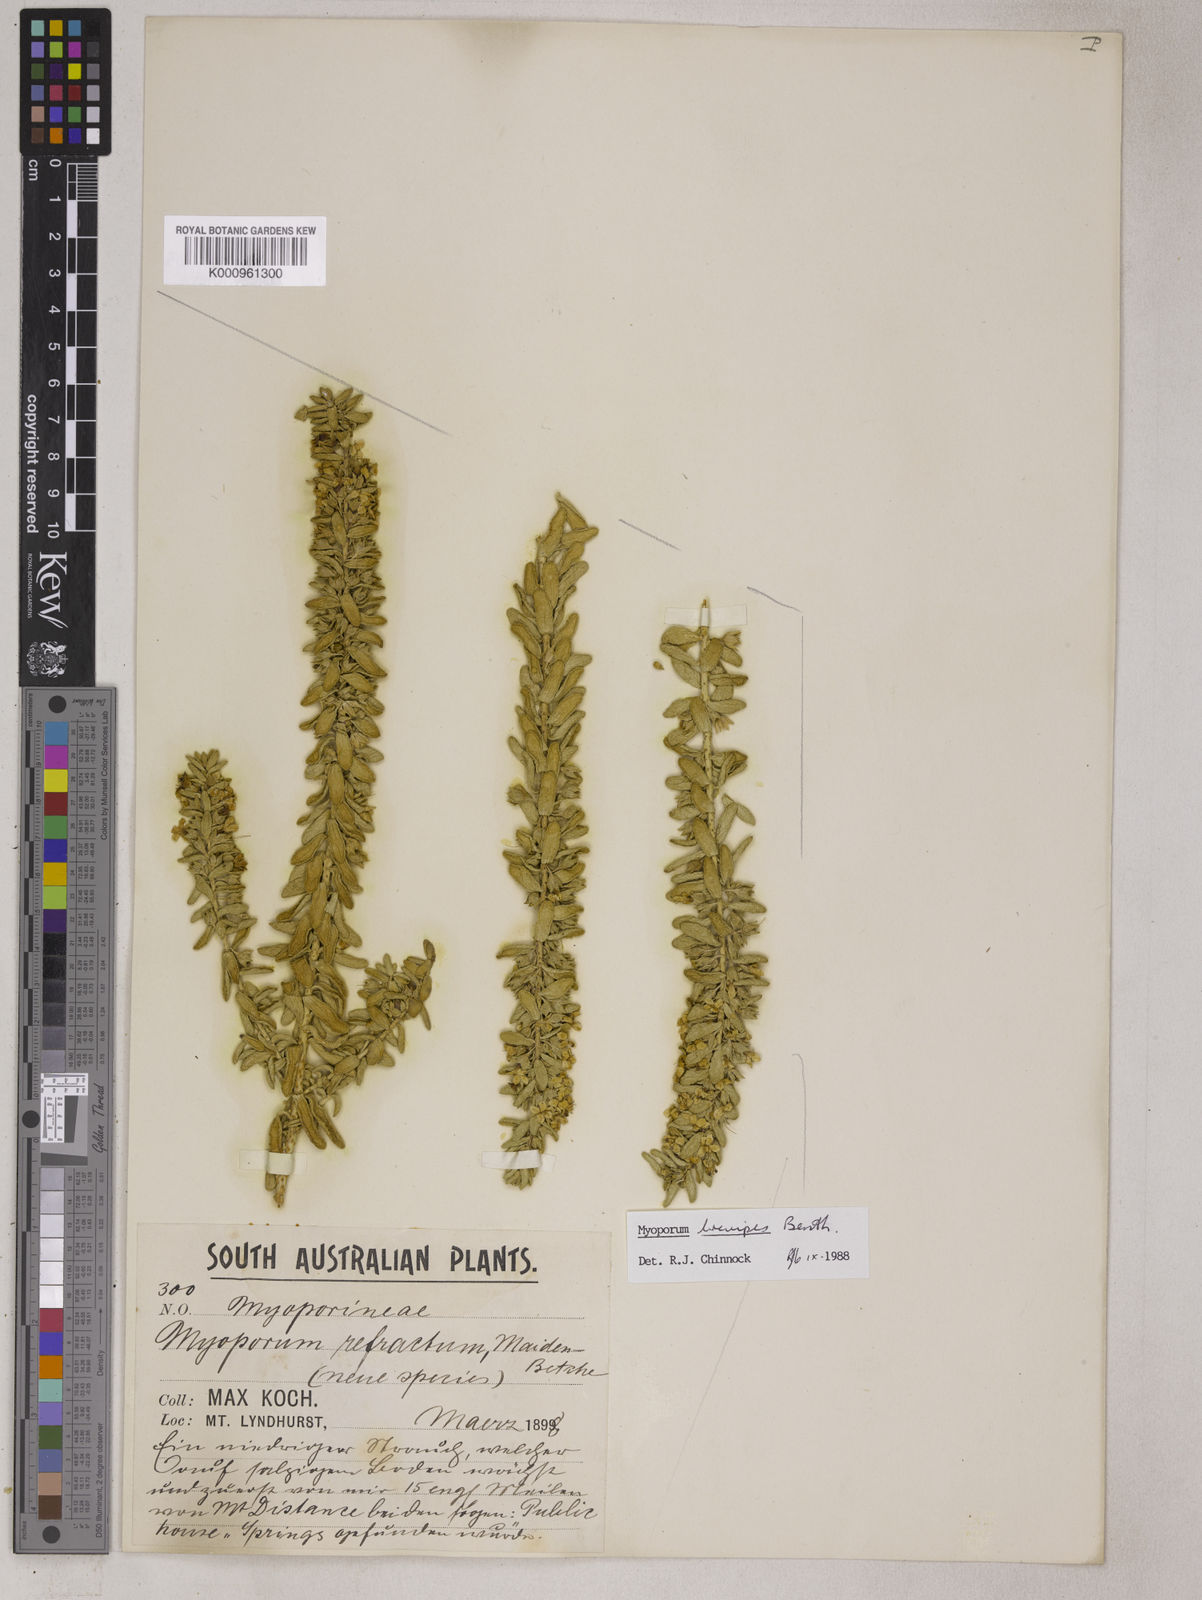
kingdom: Plantae
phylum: Tracheophyta
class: Magnoliopsida
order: Lamiales
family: Scrophulariaceae
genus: Myoporum
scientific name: Myoporum brevipes
